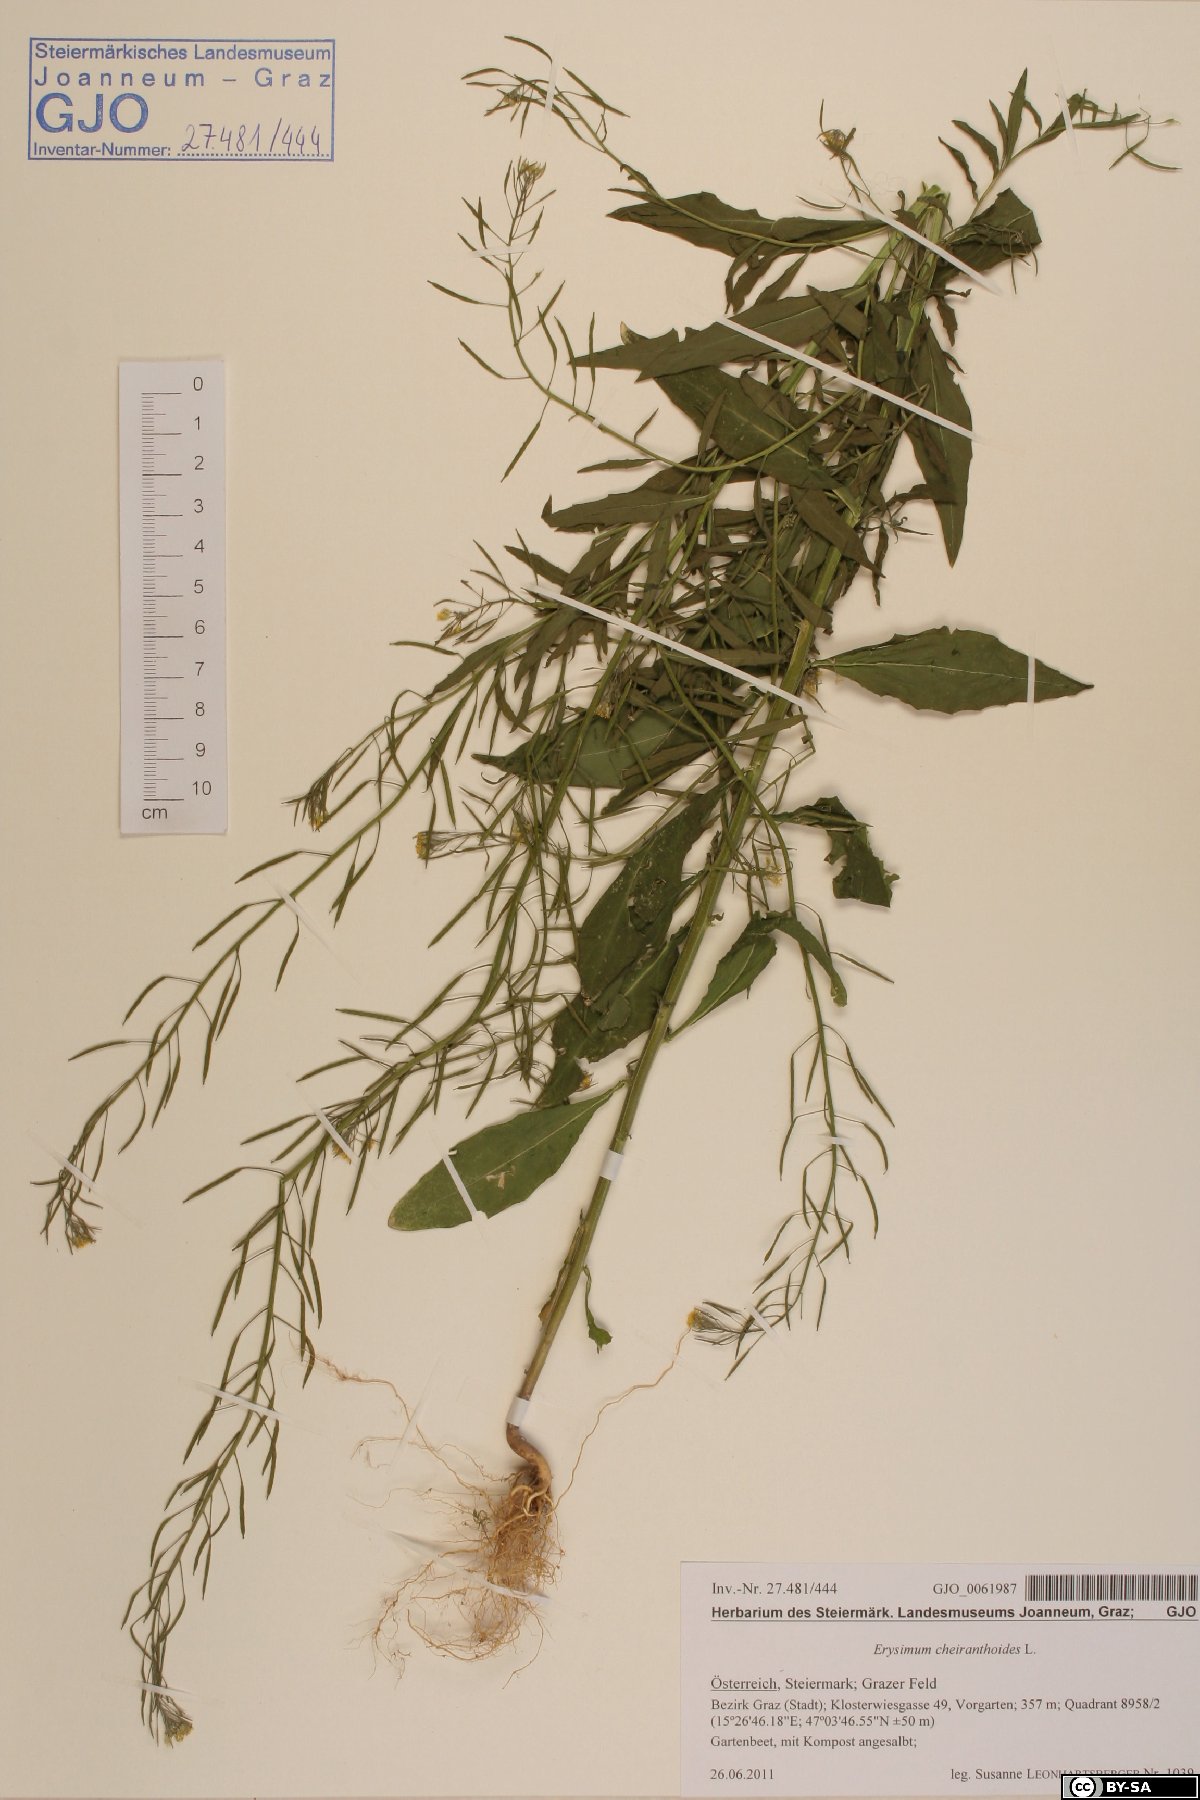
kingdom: Plantae
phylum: Tracheophyta
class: Magnoliopsida
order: Brassicales
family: Brassicaceae
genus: Erysimum
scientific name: Erysimum cheiranthoides
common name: Treacle mustard
